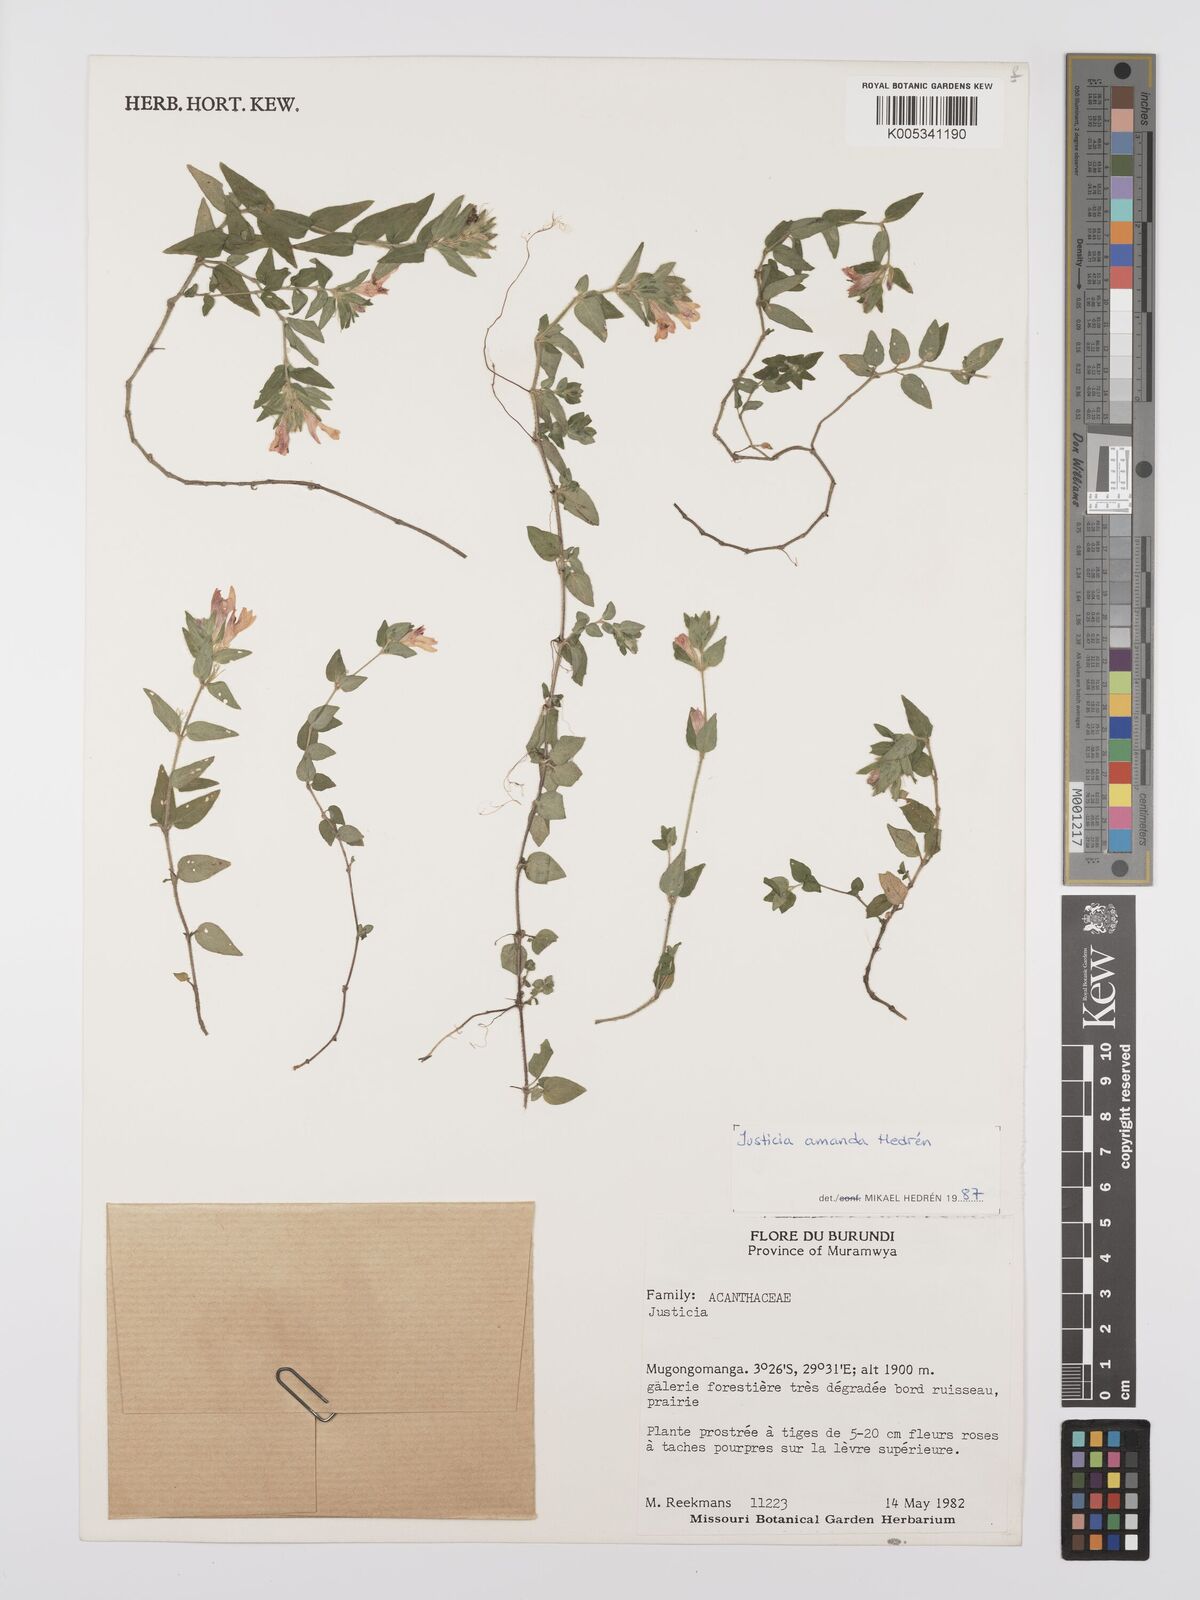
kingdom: Plantae
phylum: Tracheophyta
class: Magnoliopsida
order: Lamiales
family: Acanthaceae
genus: Justicia
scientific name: Justicia amanda
